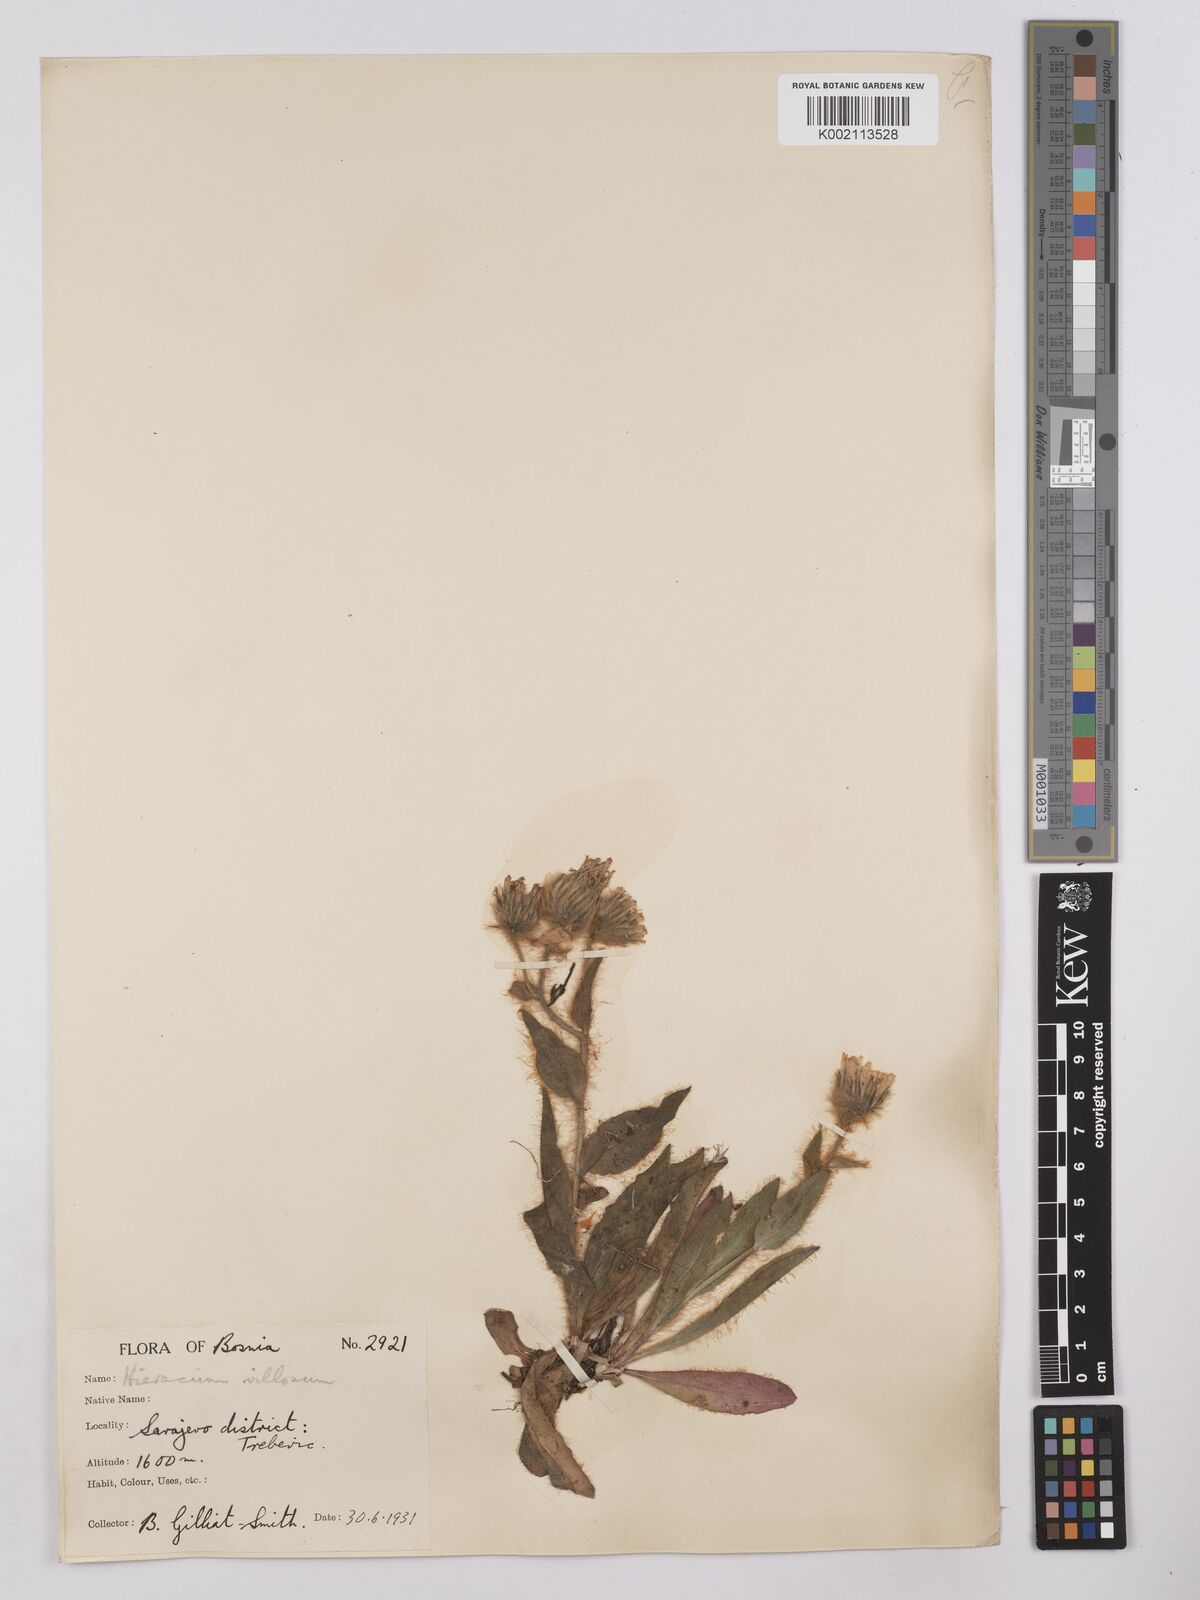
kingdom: Plantae
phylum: Tracheophyta
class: Magnoliopsida
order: Asterales
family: Asteraceae
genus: Hieracium
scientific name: Hieracium
